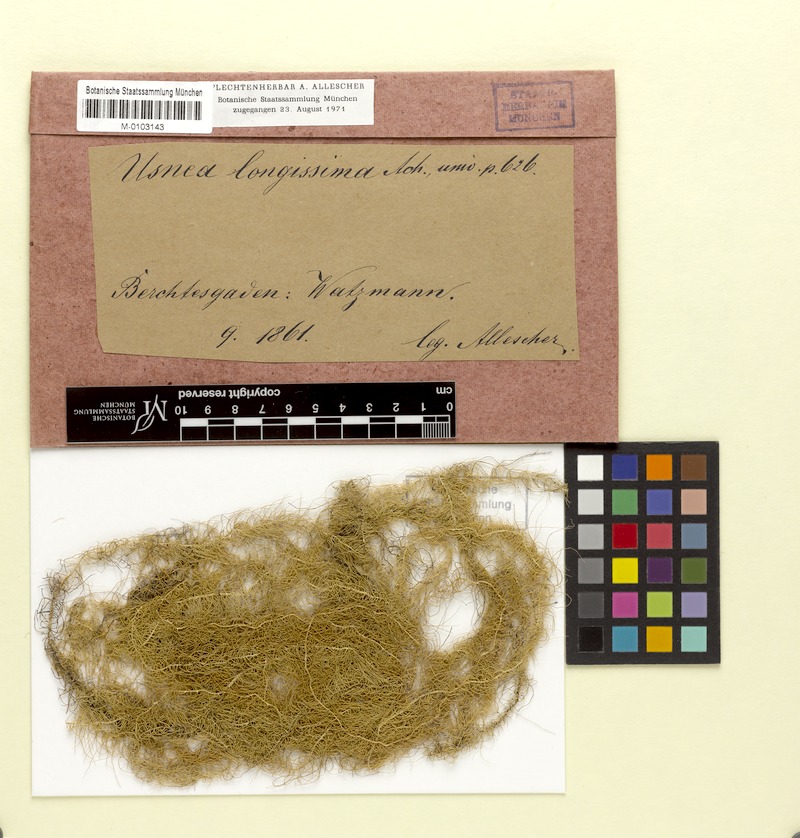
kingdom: Fungi
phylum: Ascomycota
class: Lecanoromycetes
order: Lecanorales
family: Parmeliaceae
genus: Dolichousnea
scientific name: Dolichousnea longissima
